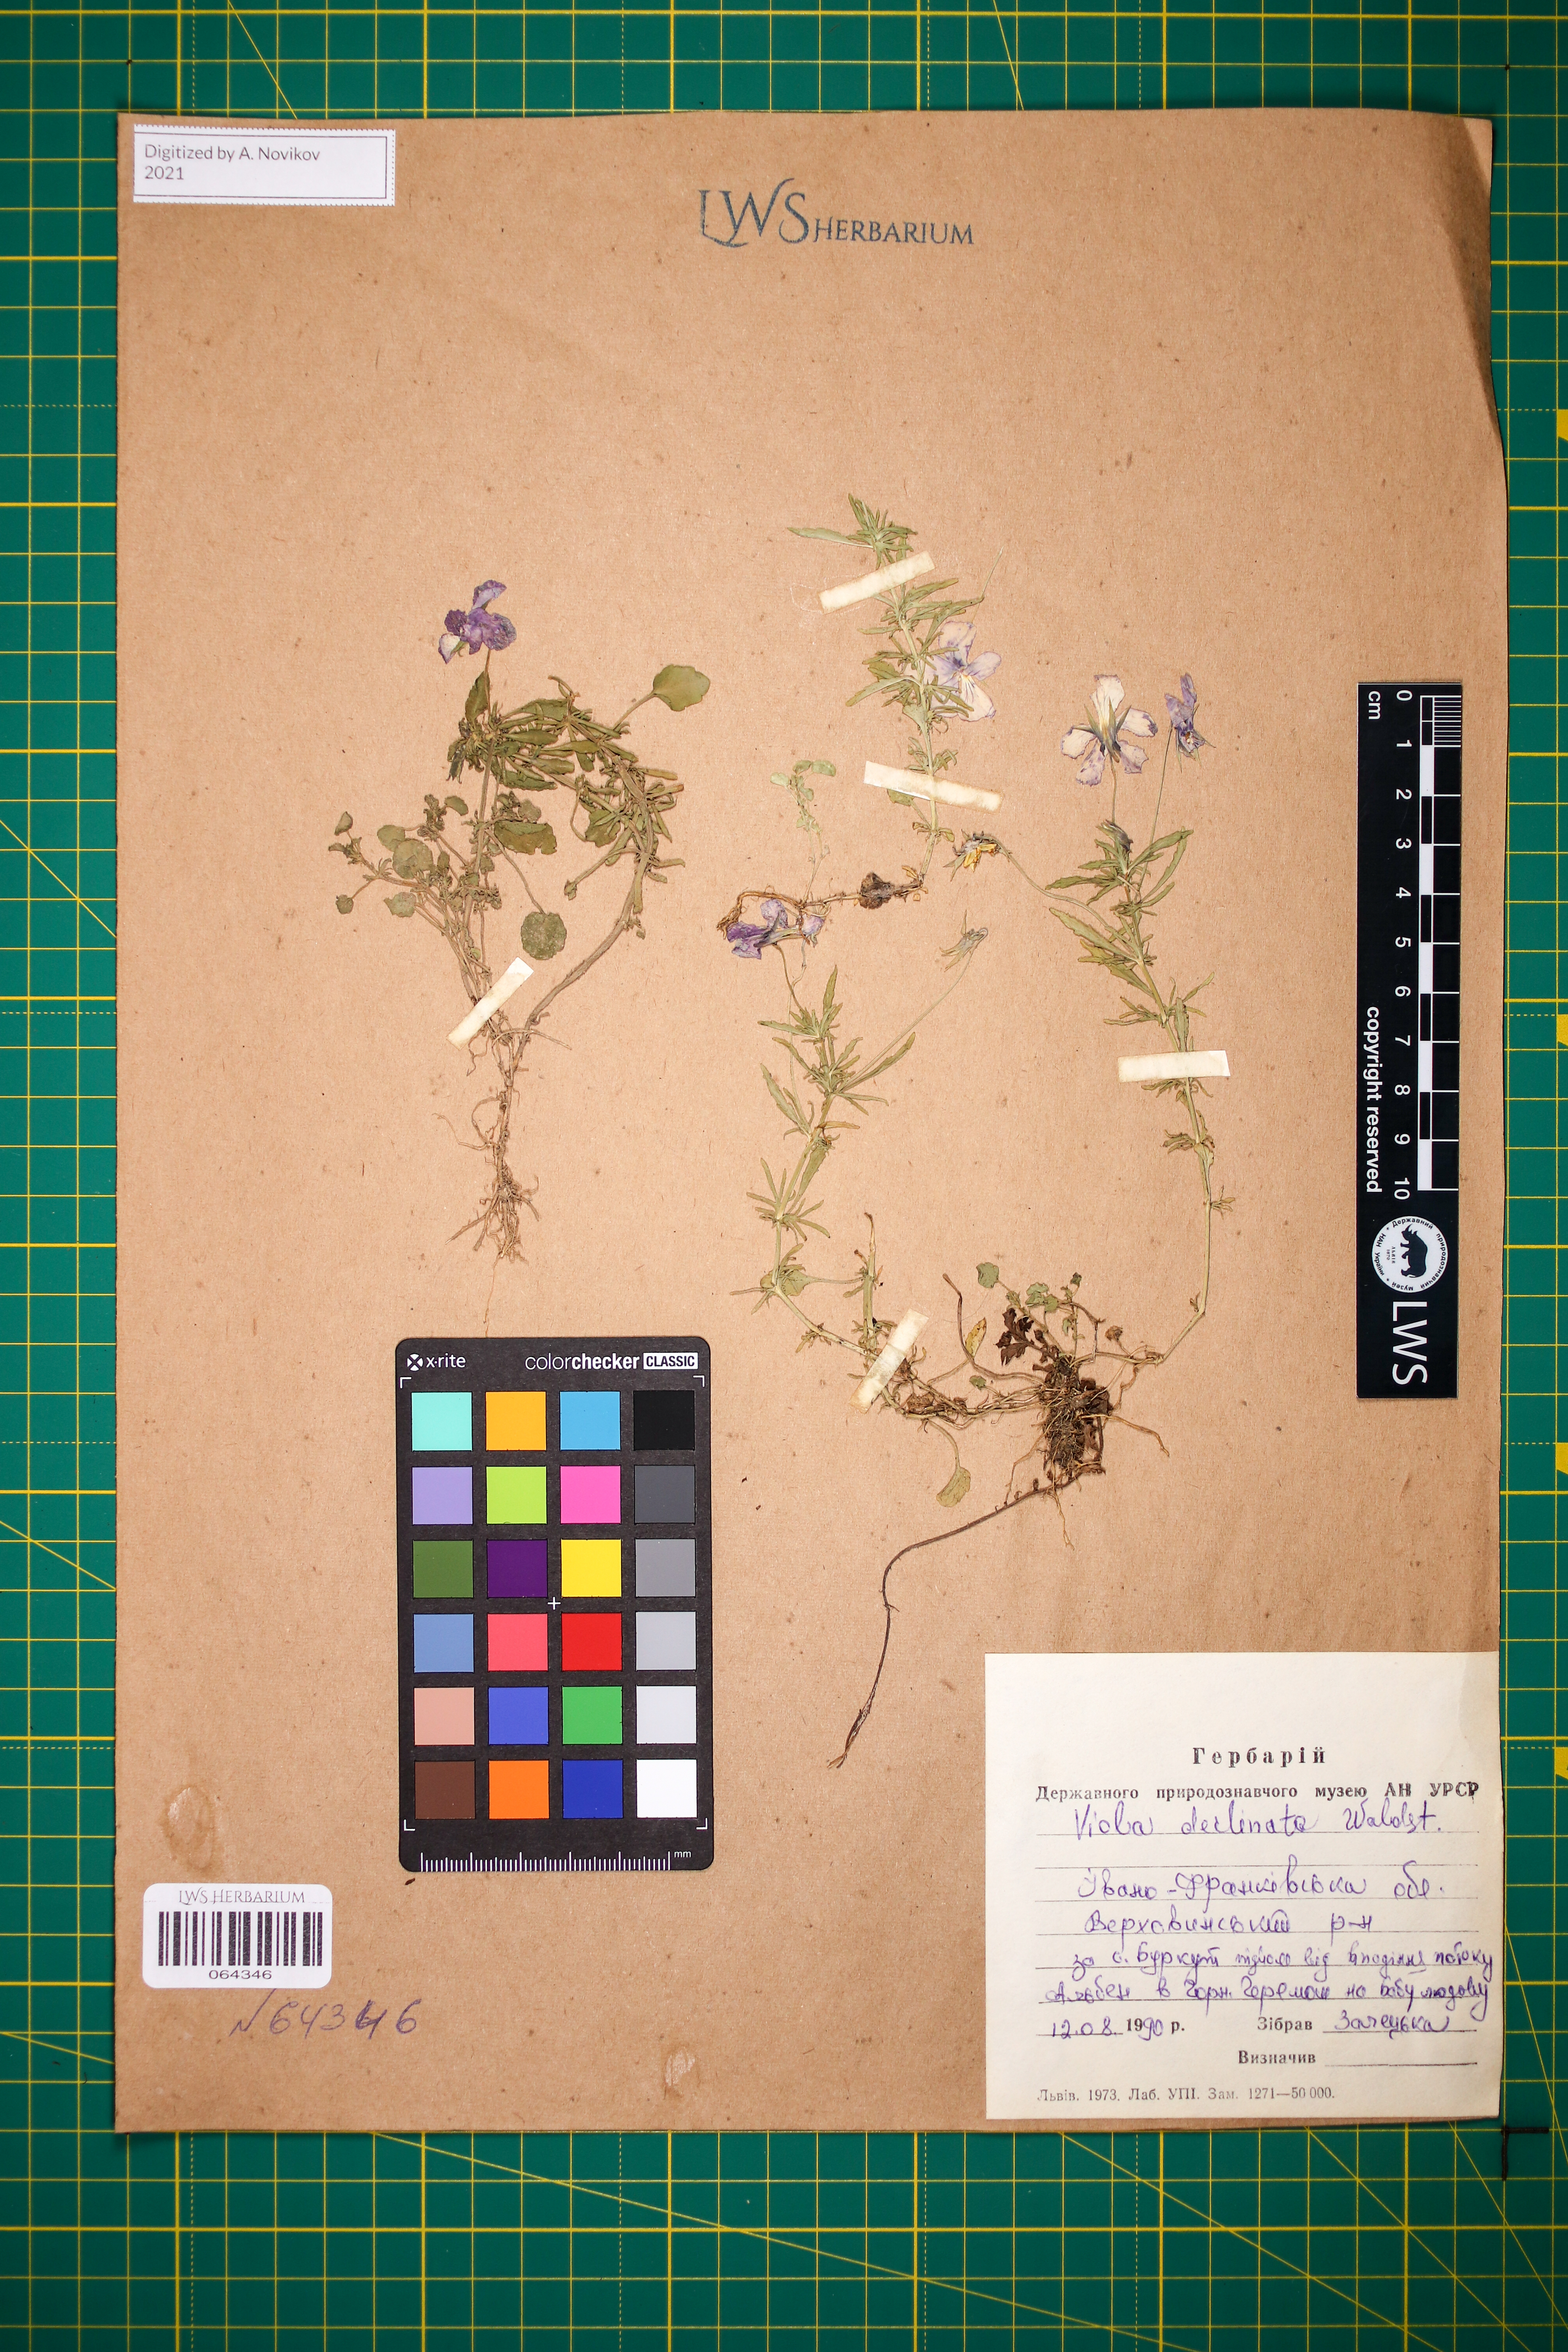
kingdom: Plantae
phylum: Tracheophyta
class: Magnoliopsida
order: Malpighiales
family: Violaceae
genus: Viola
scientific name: Viola declinata
